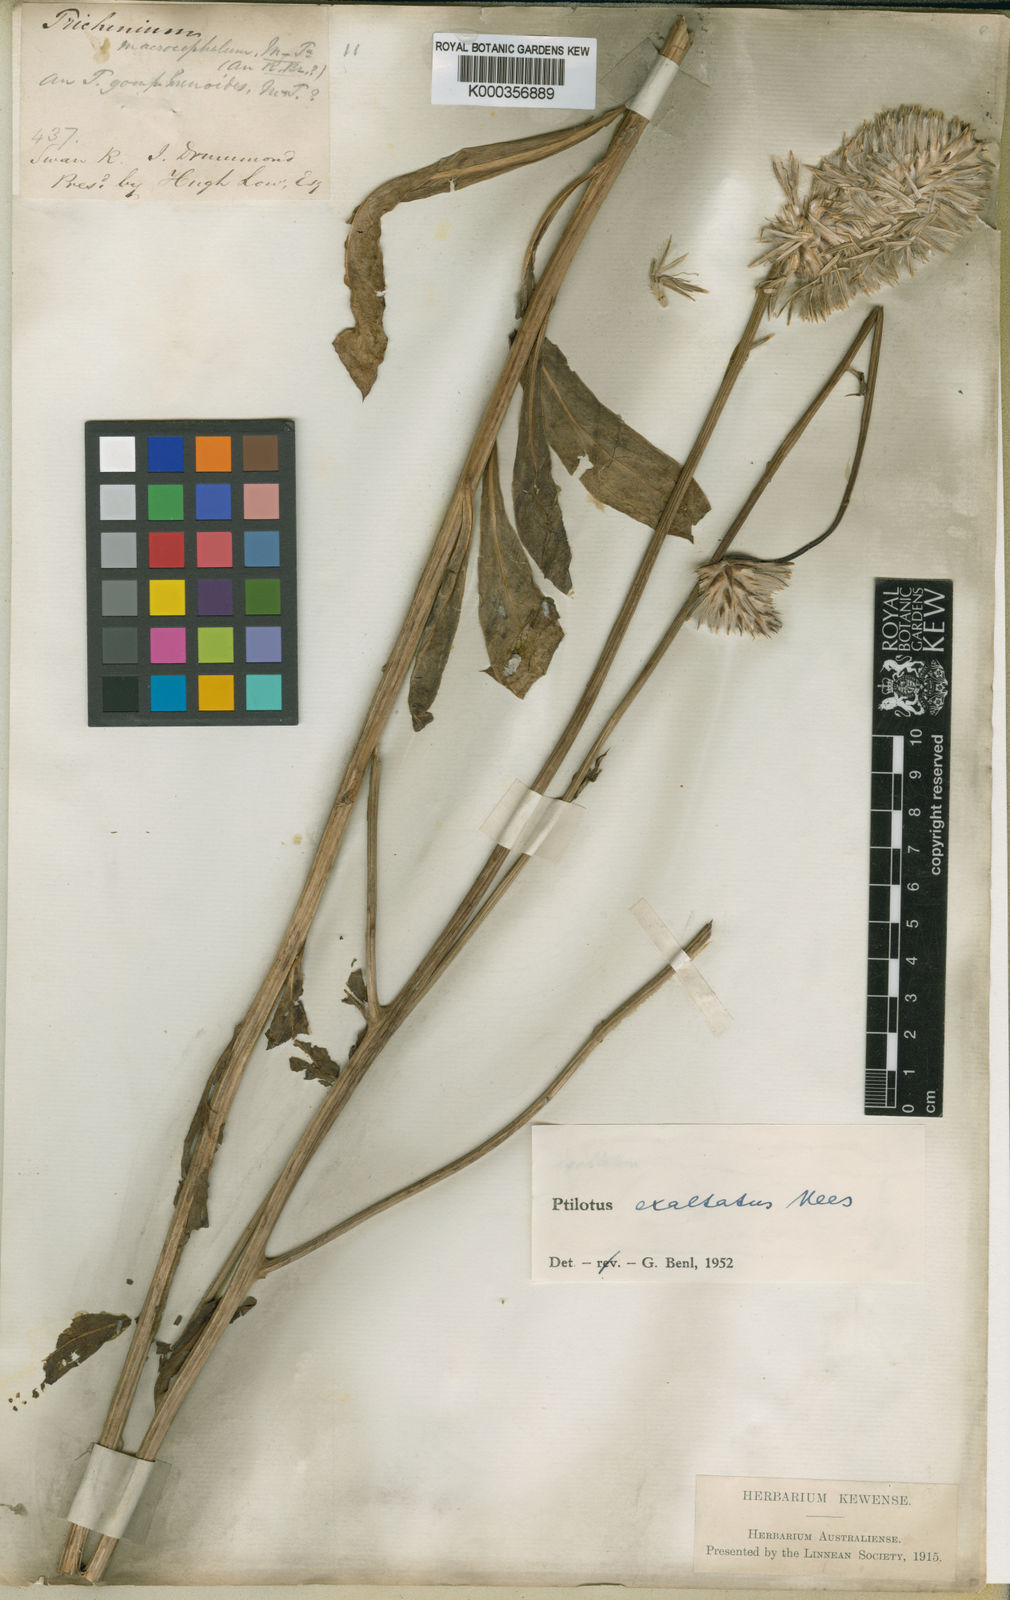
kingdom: Plantae
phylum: Tracheophyta
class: Magnoliopsida
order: Caryophyllales
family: Amaranthaceae
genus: Ptilotus
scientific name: Ptilotus exaltatus
